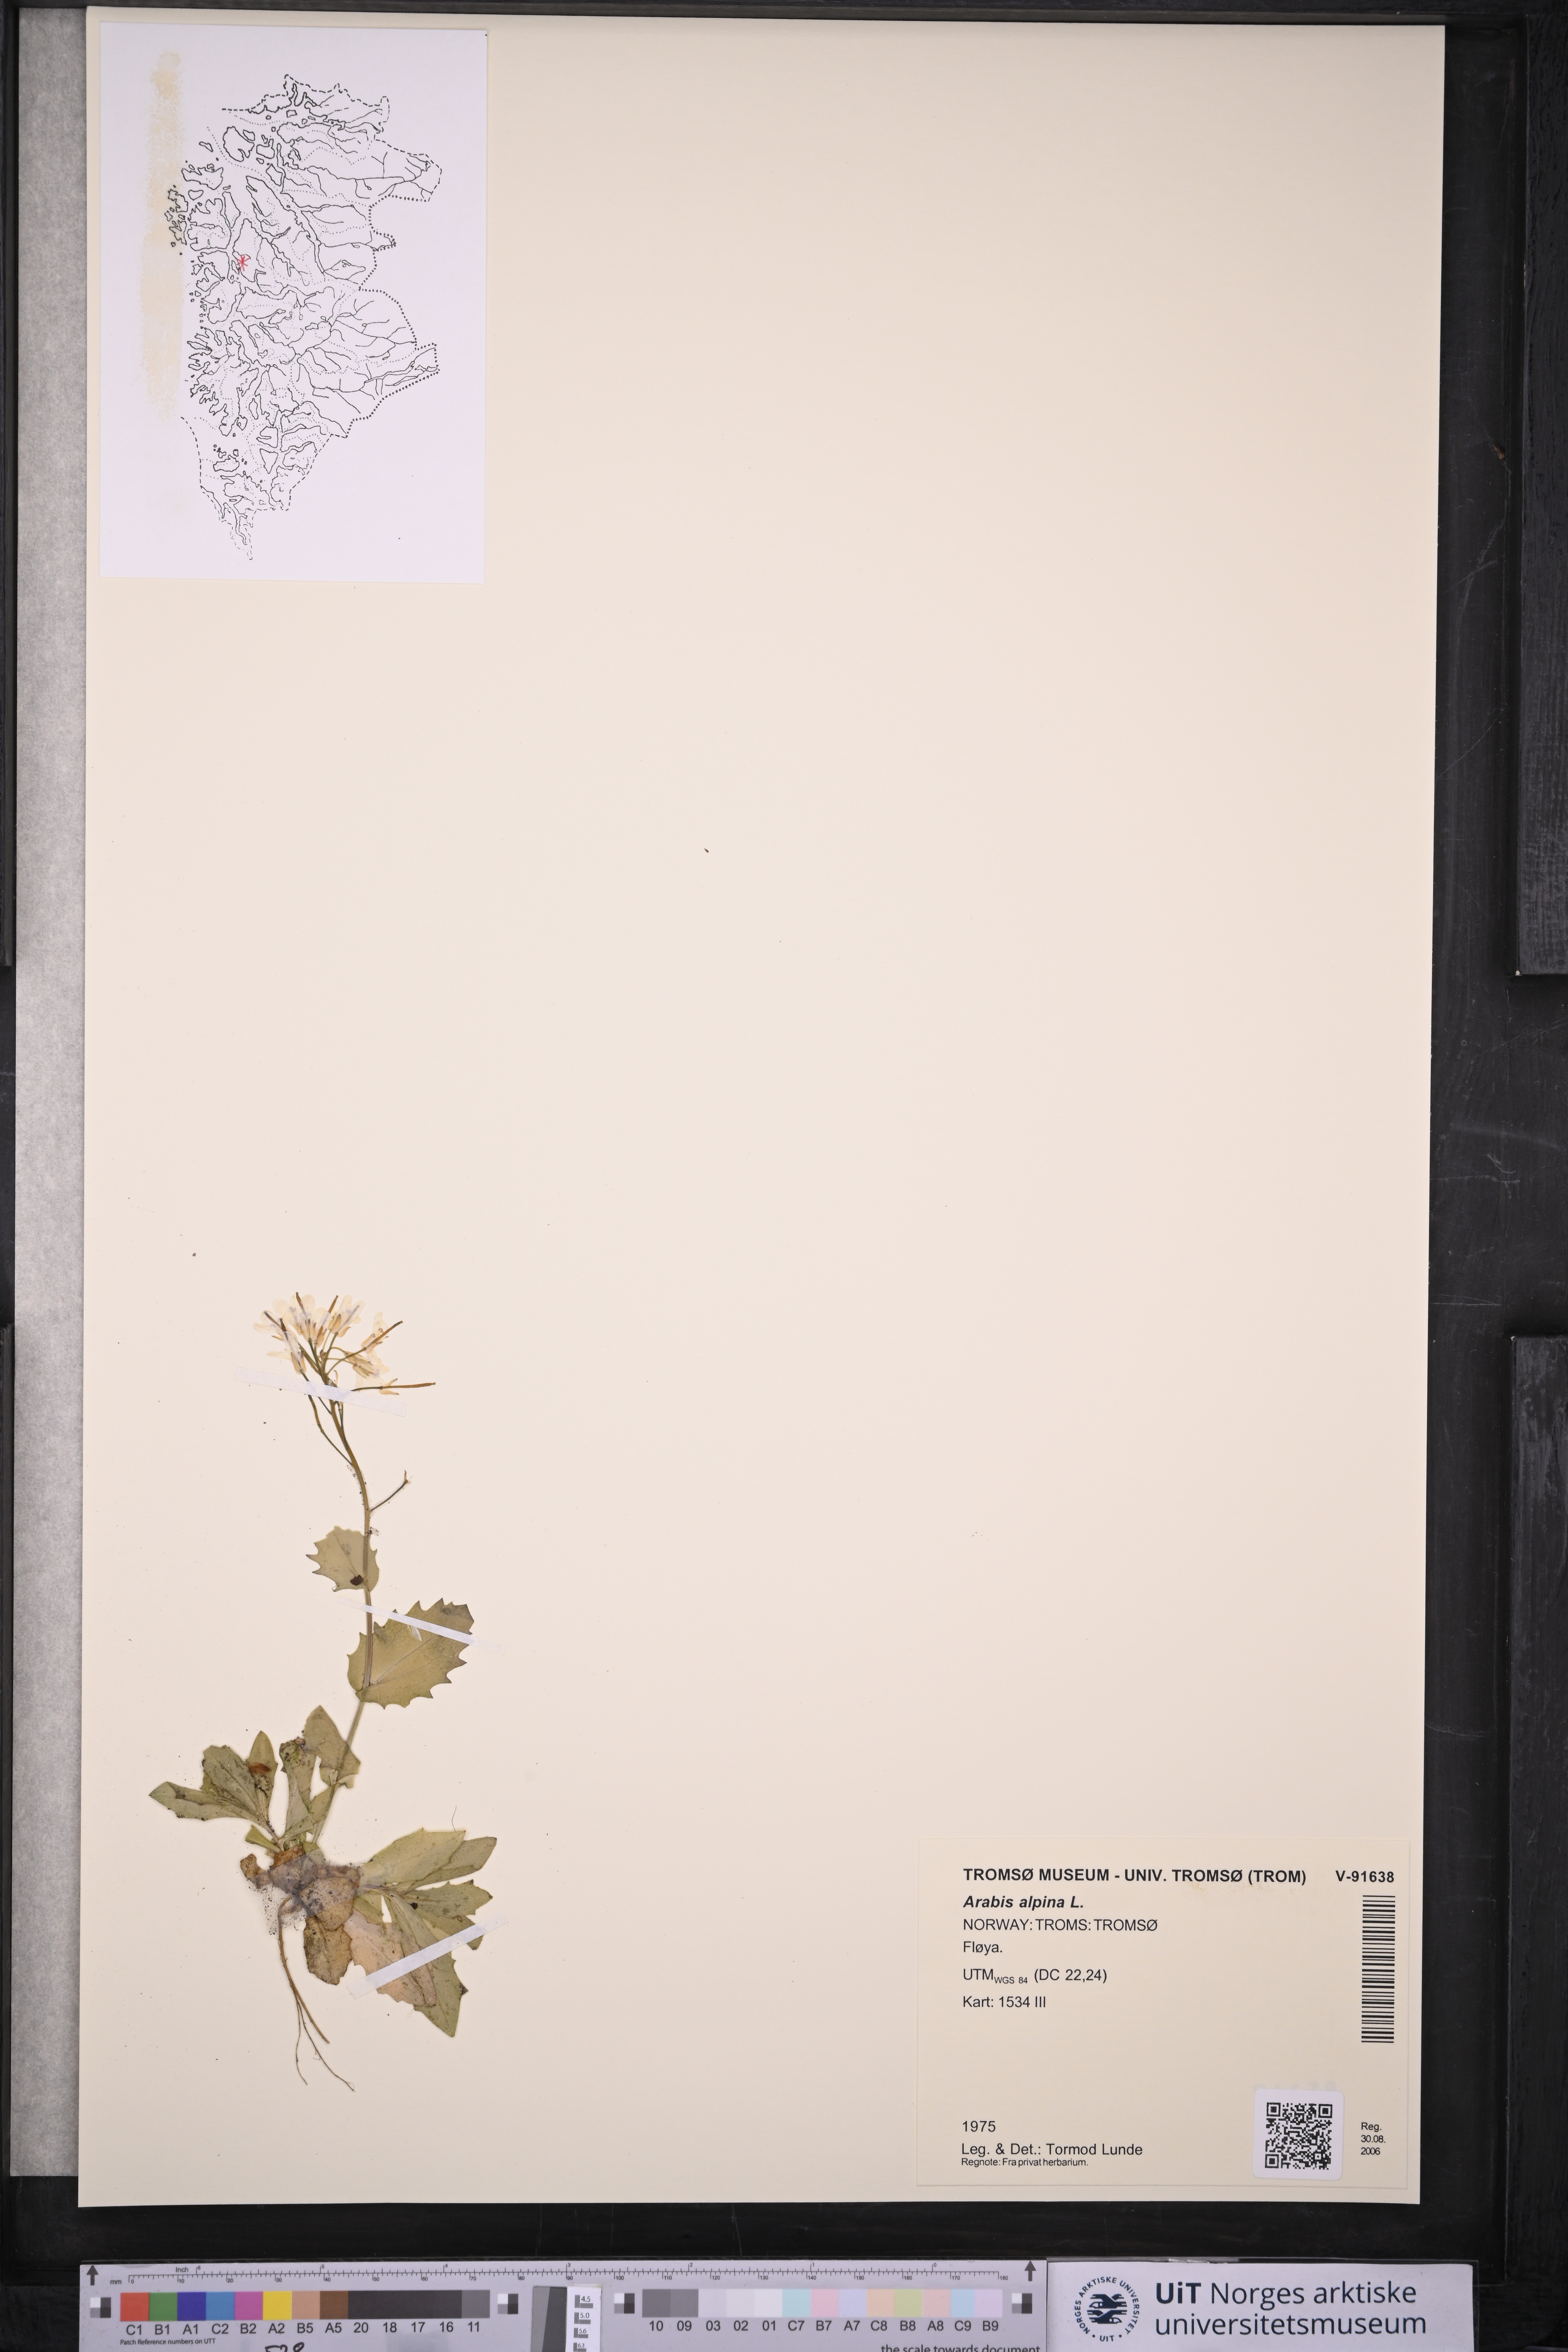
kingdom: Plantae
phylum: Tracheophyta
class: Magnoliopsida
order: Brassicales
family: Brassicaceae
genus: Arabis
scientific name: Arabis alpina
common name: Alpine rock-cress
